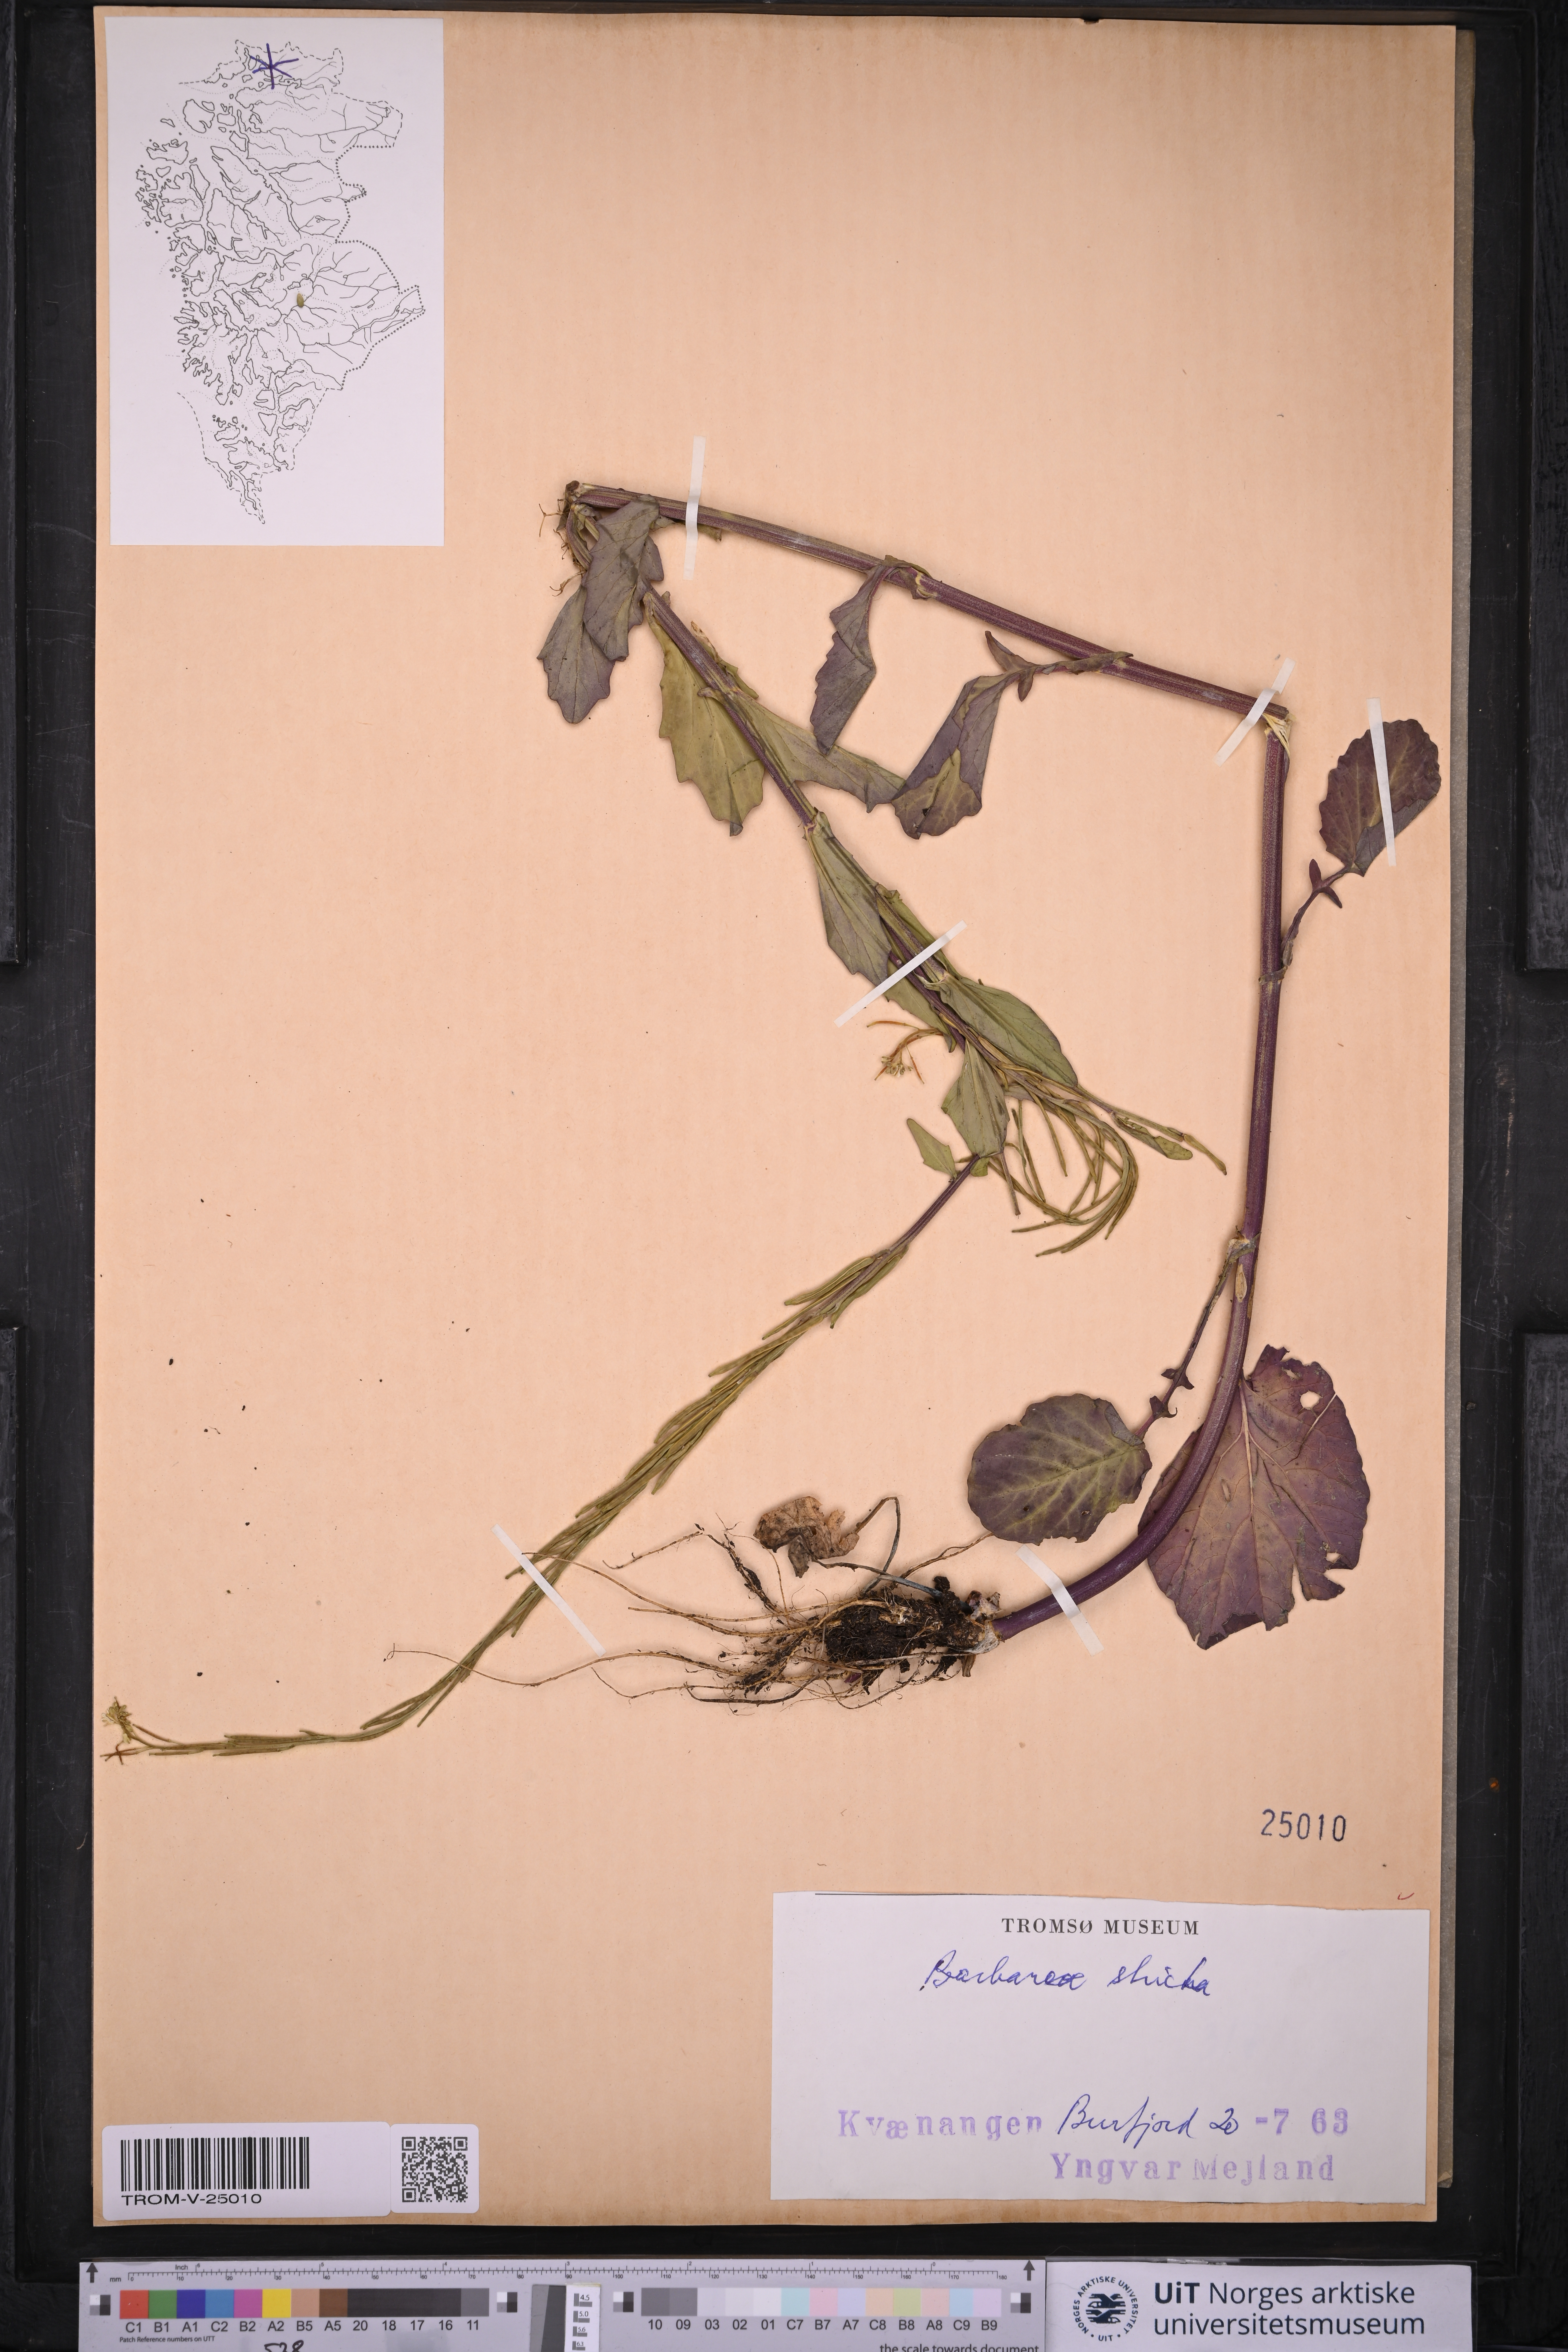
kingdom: Plantae
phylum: Tracheophyta
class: Magnoliopsida
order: Brassicales
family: Brassicaceae
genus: Barbarea
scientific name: Barbarea stricta
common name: Small-flowered winter-cress
